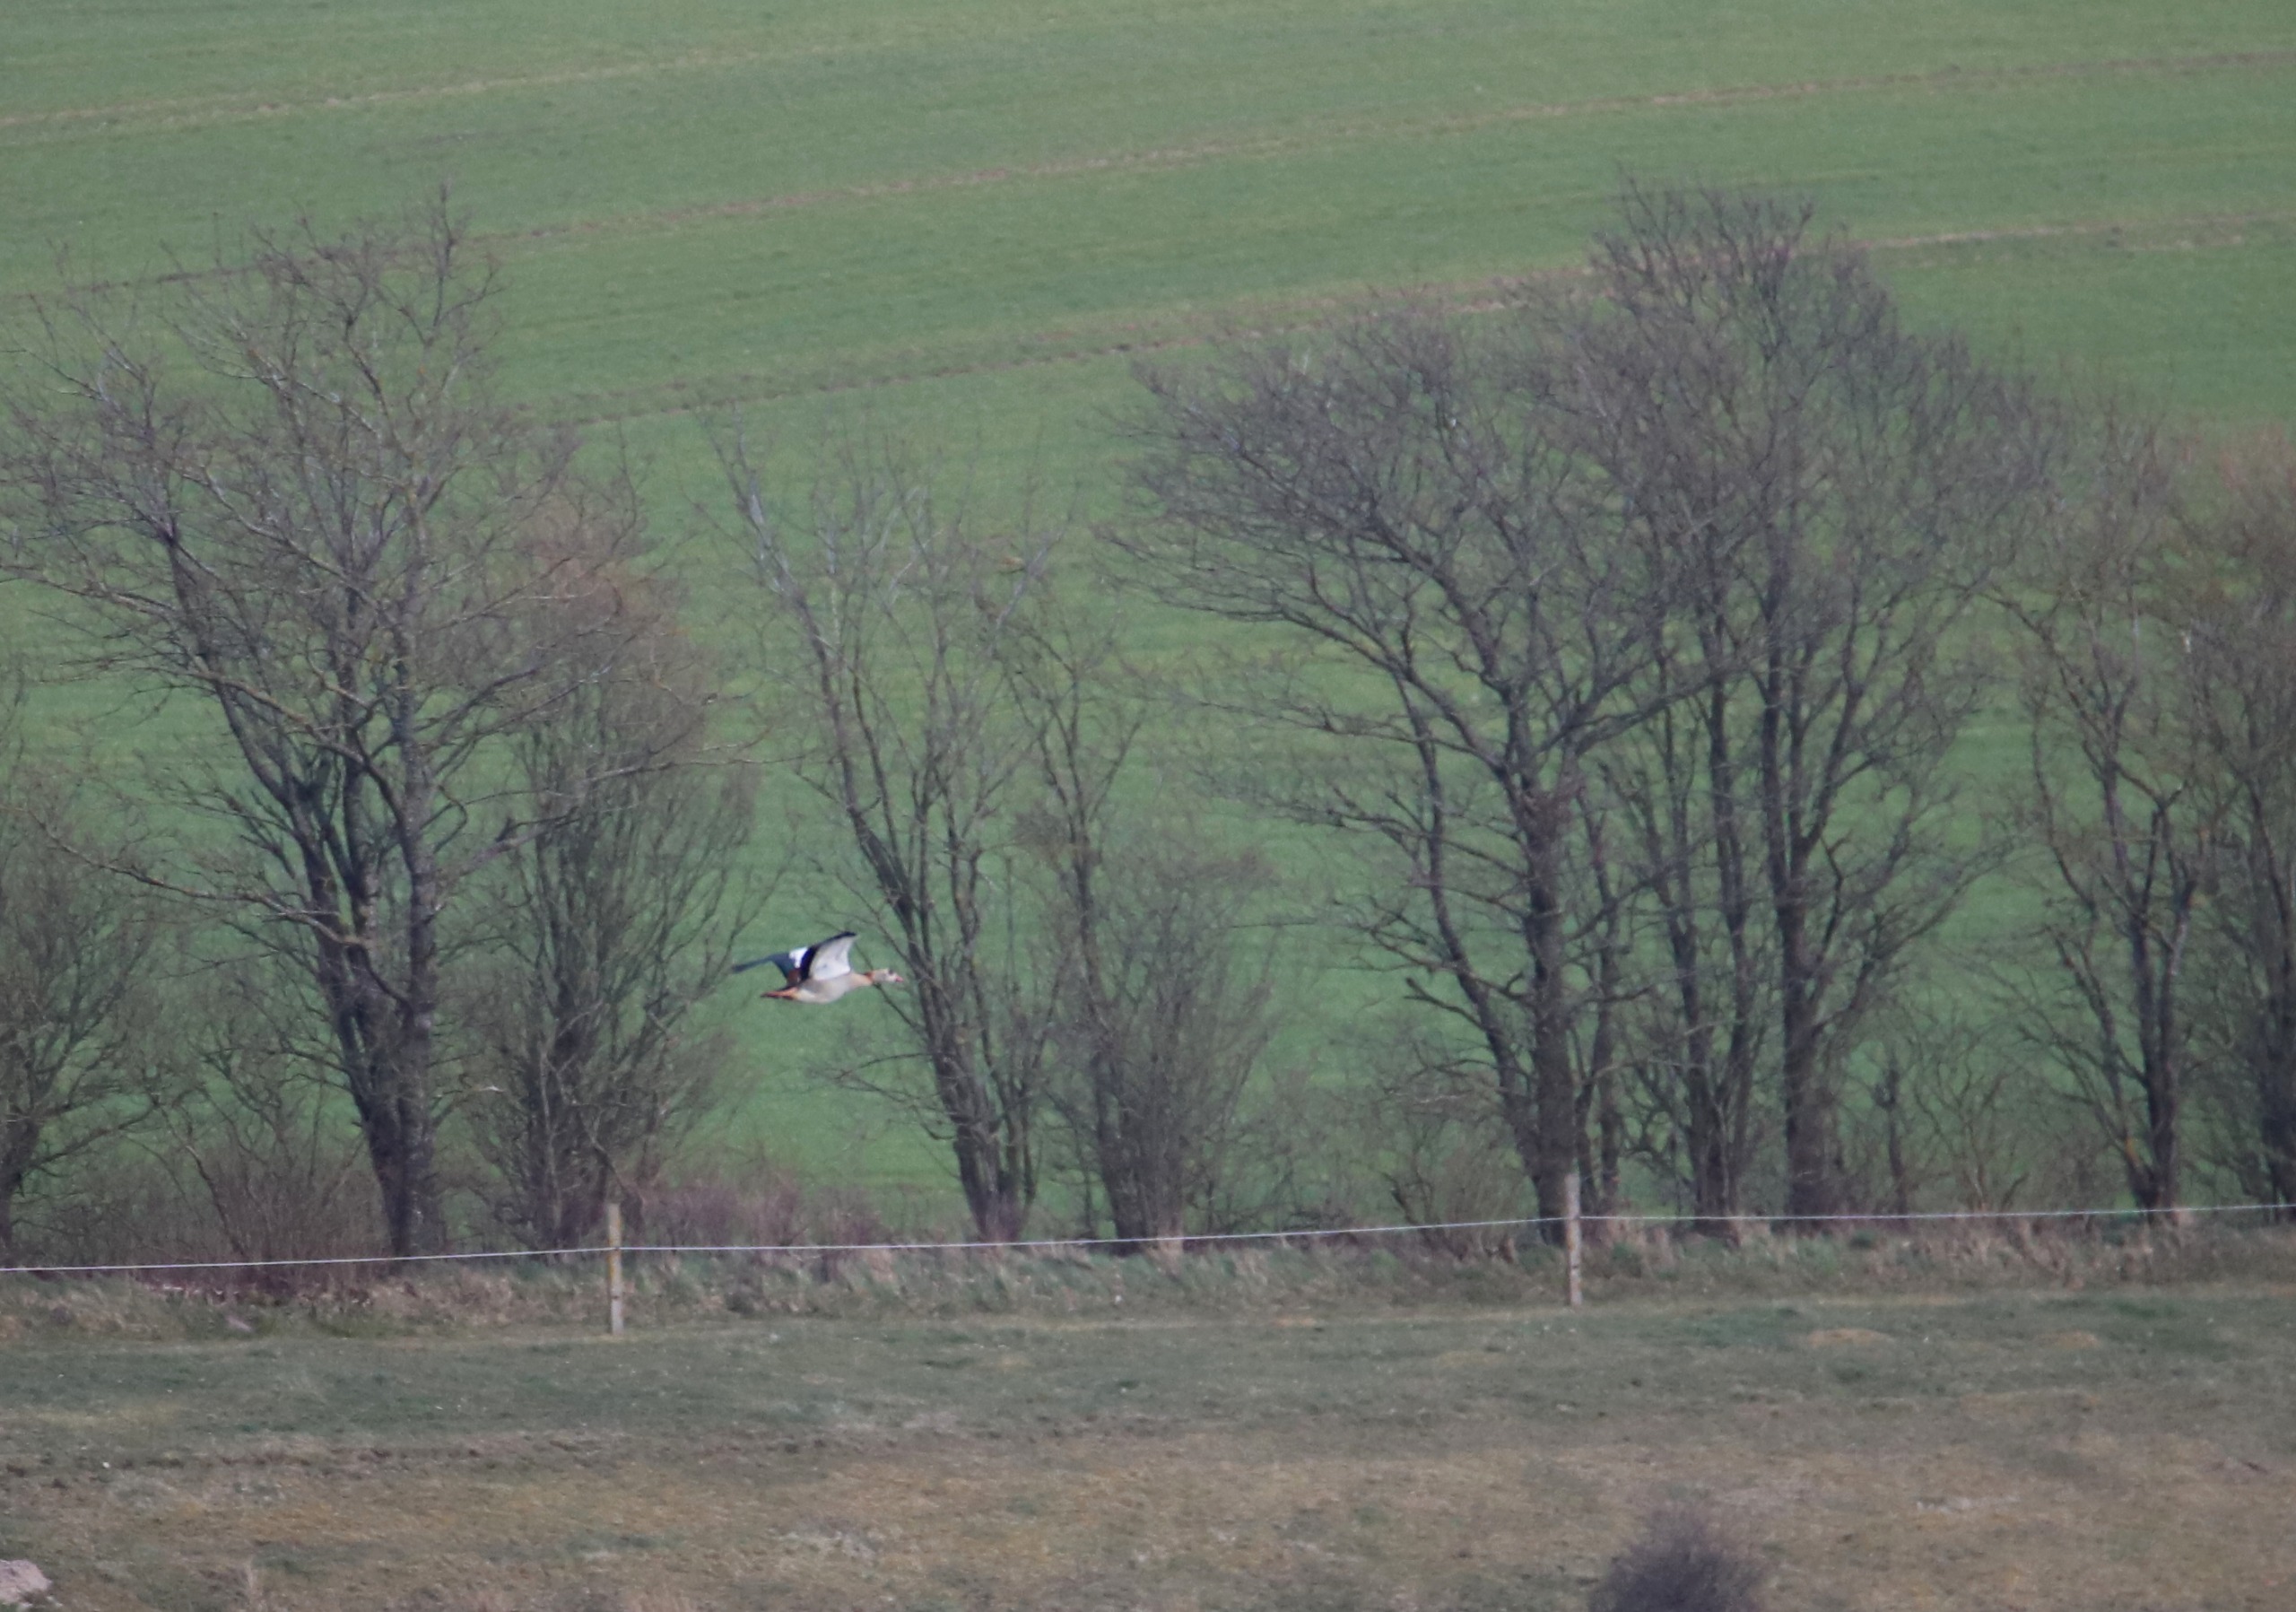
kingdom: Animalia
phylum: Chordata
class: Aves
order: Anseriformes
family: Anatidae
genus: Alopochen
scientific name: Alopochen aegyptiaca
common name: Nilgås
